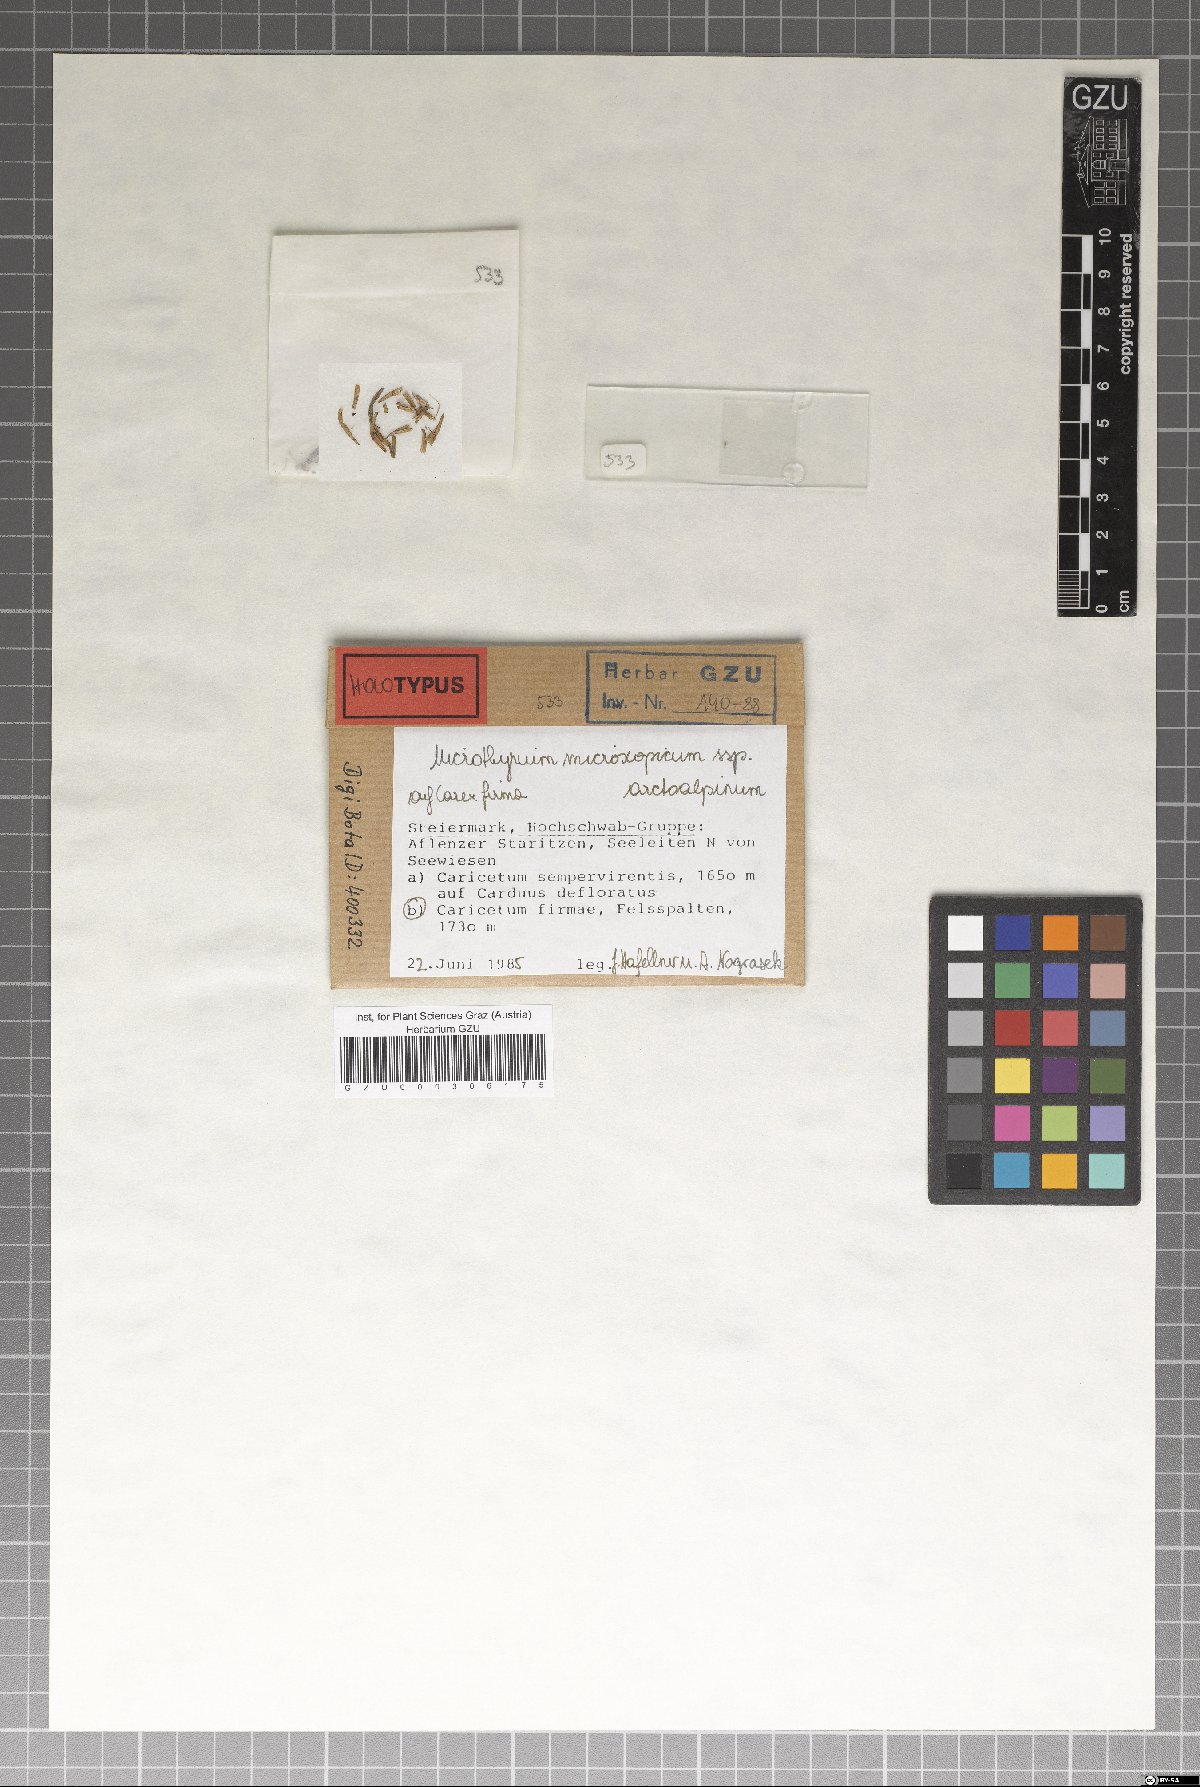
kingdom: Fungi
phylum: Ascomycota
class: Dothideomycetes
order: Microthyriales
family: Microthyriaceae
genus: Microthyrium
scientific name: Microthyrium microscopicum
